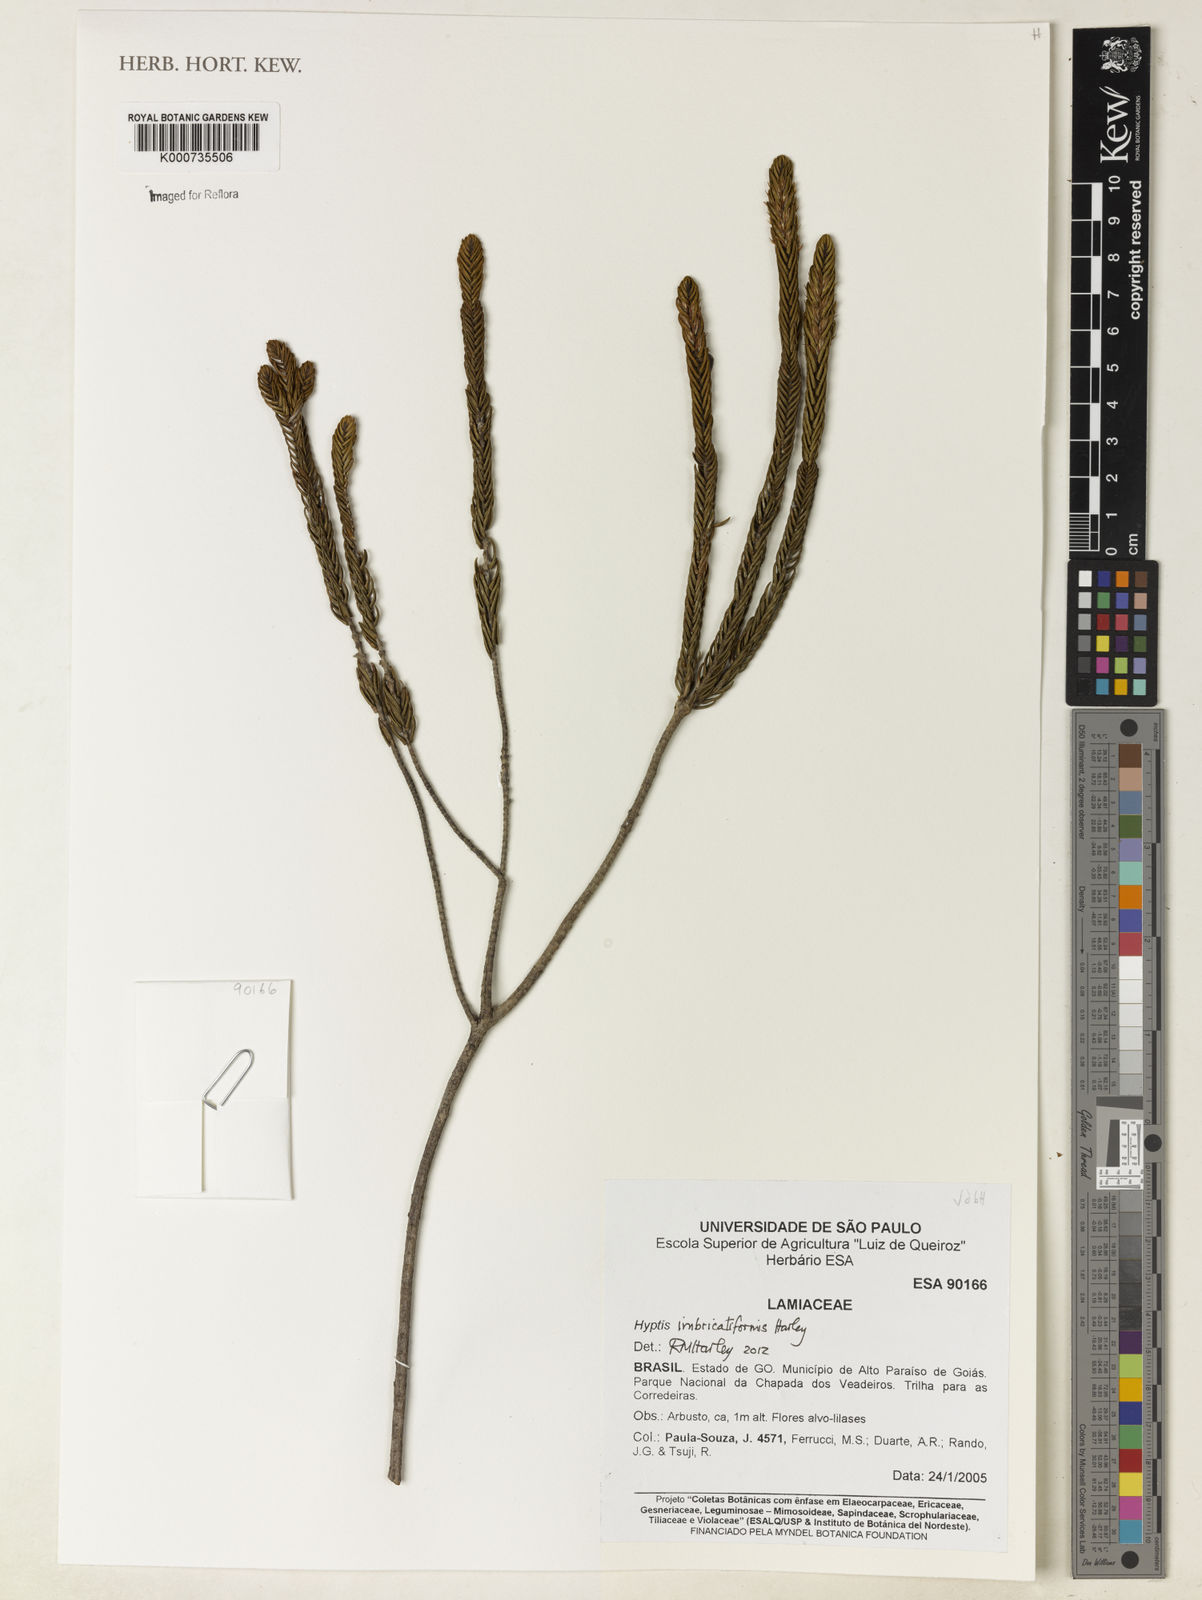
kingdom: Plantae
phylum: Tracheophyta
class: Magnoliopsida
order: Lamiales
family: Lamiaceae
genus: Hyptis
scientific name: Hyptis imbricatiformis
